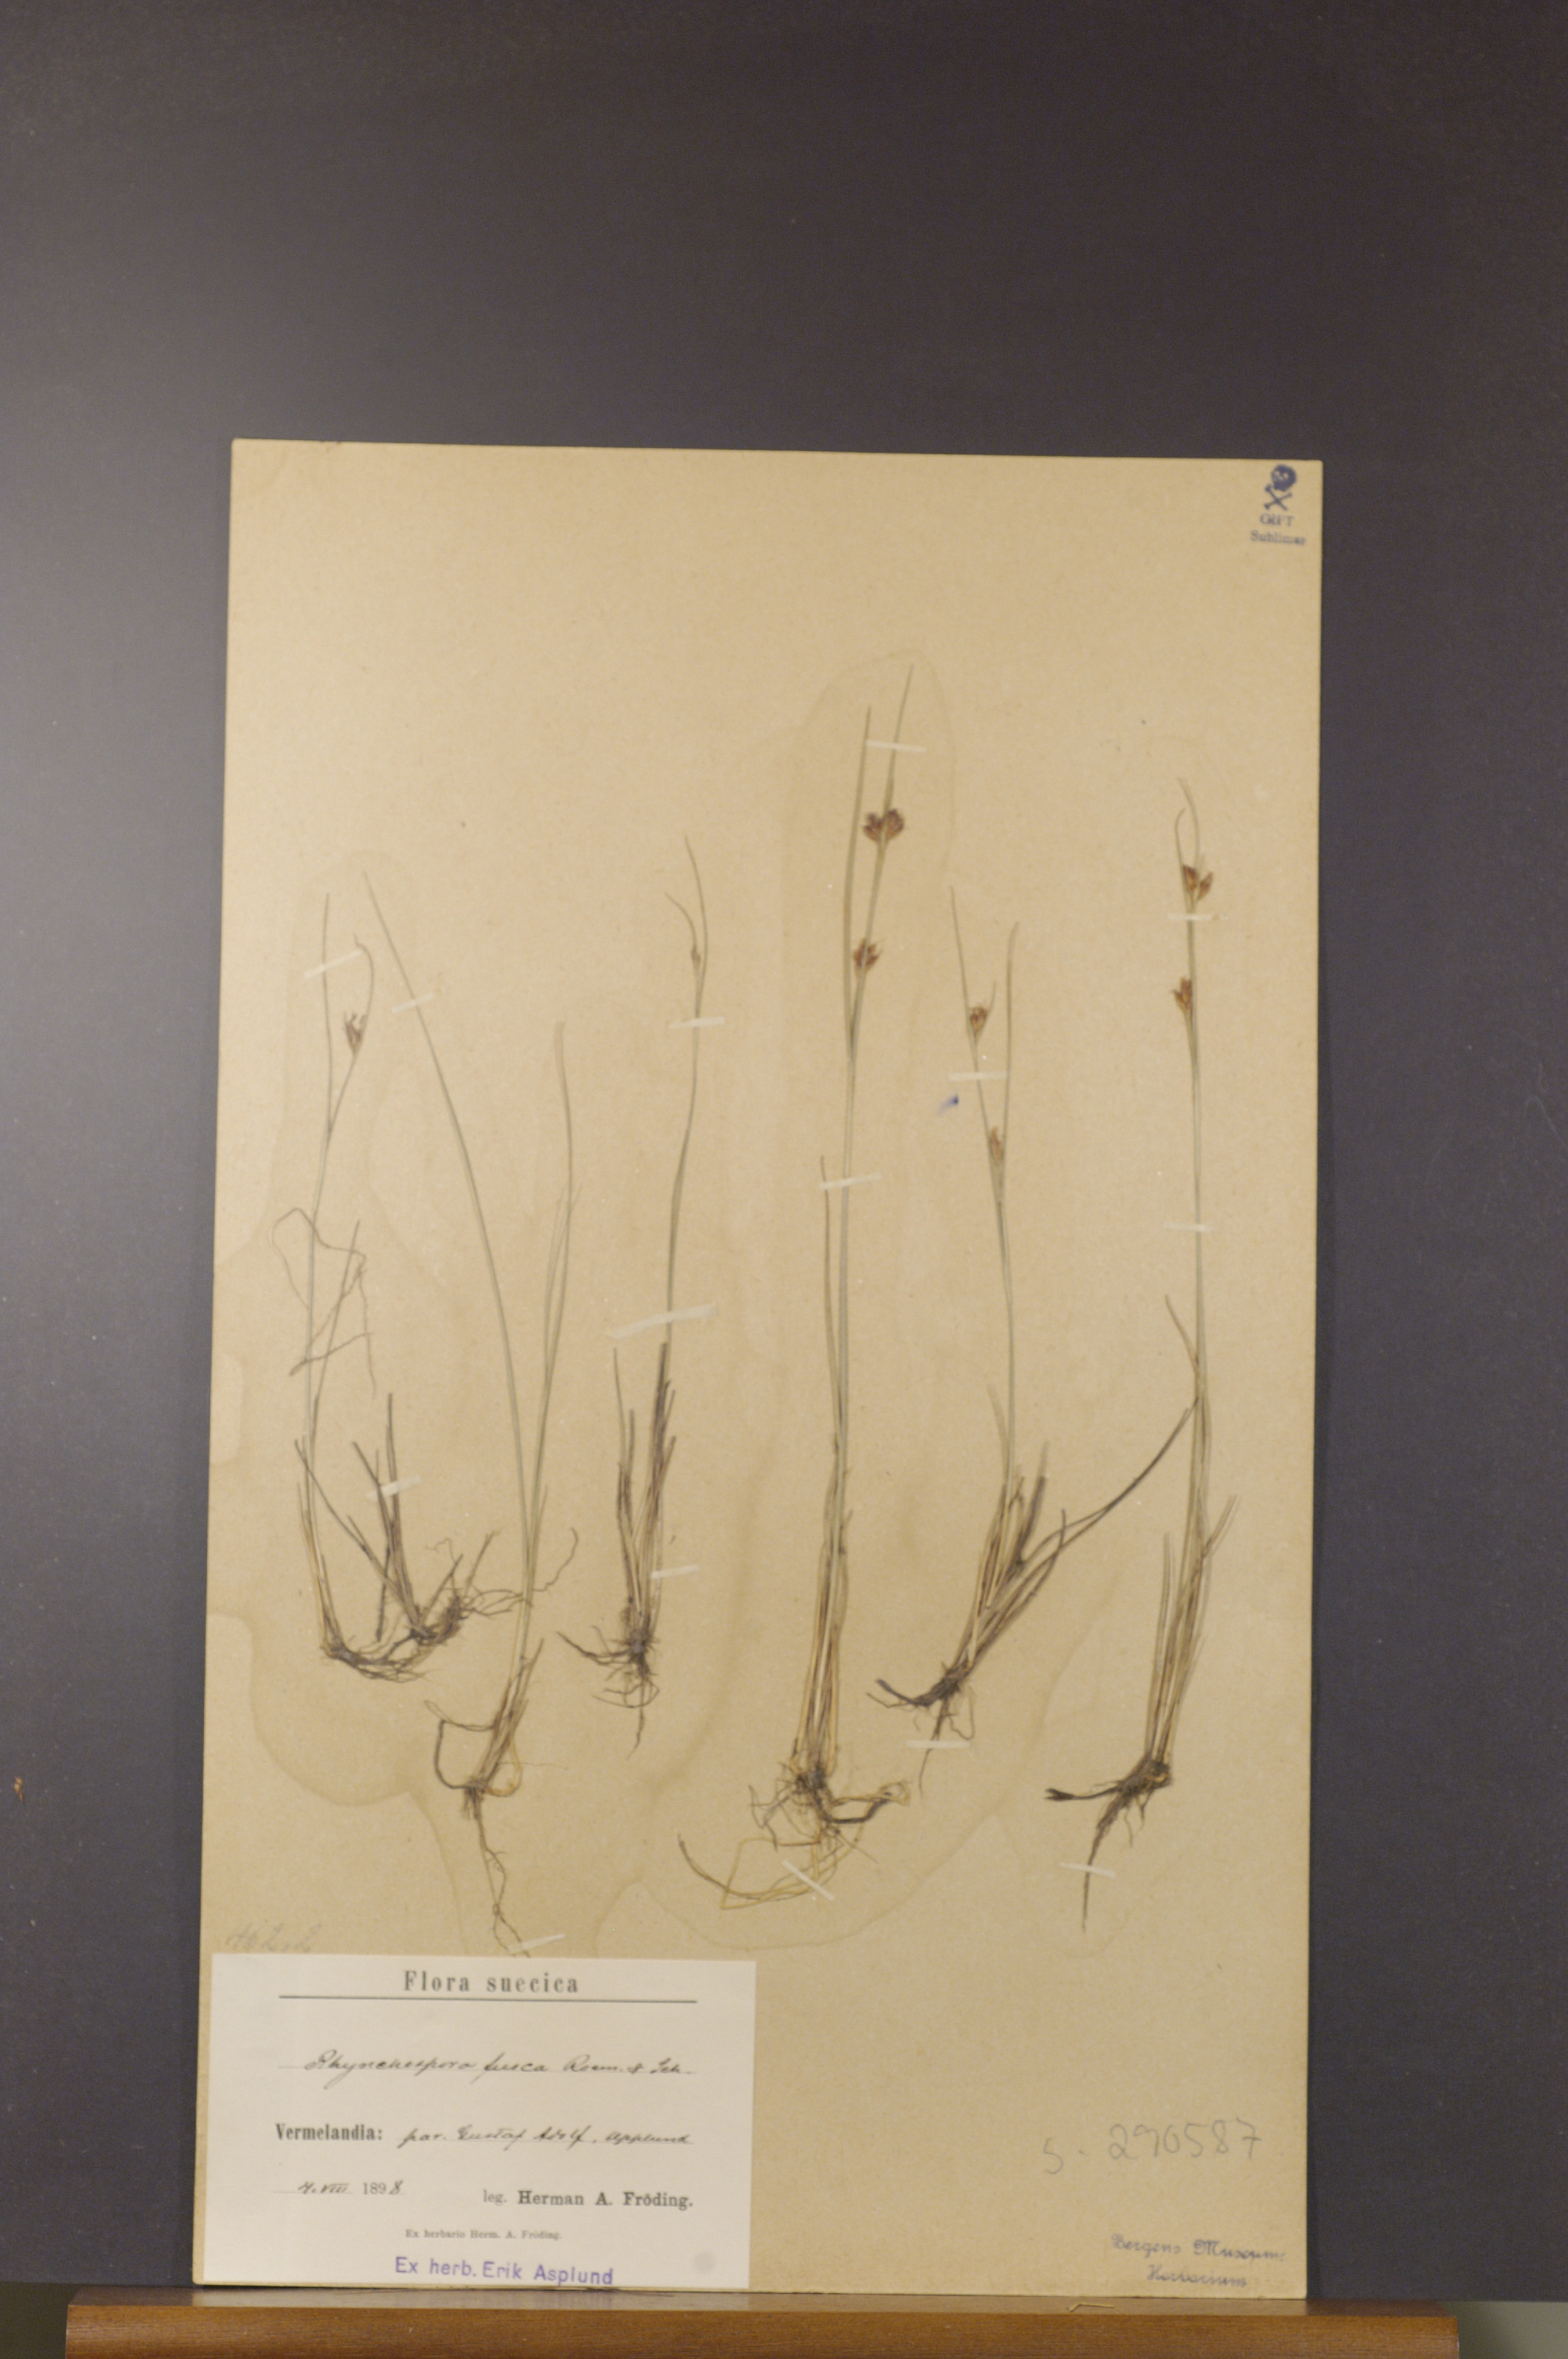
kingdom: Plantae
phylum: Tracheophyta
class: Liliopsida
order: Poales
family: Cyperaceae
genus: Rhynchospora
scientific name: Rhynchospora fusca
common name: Brown beak-sedge
